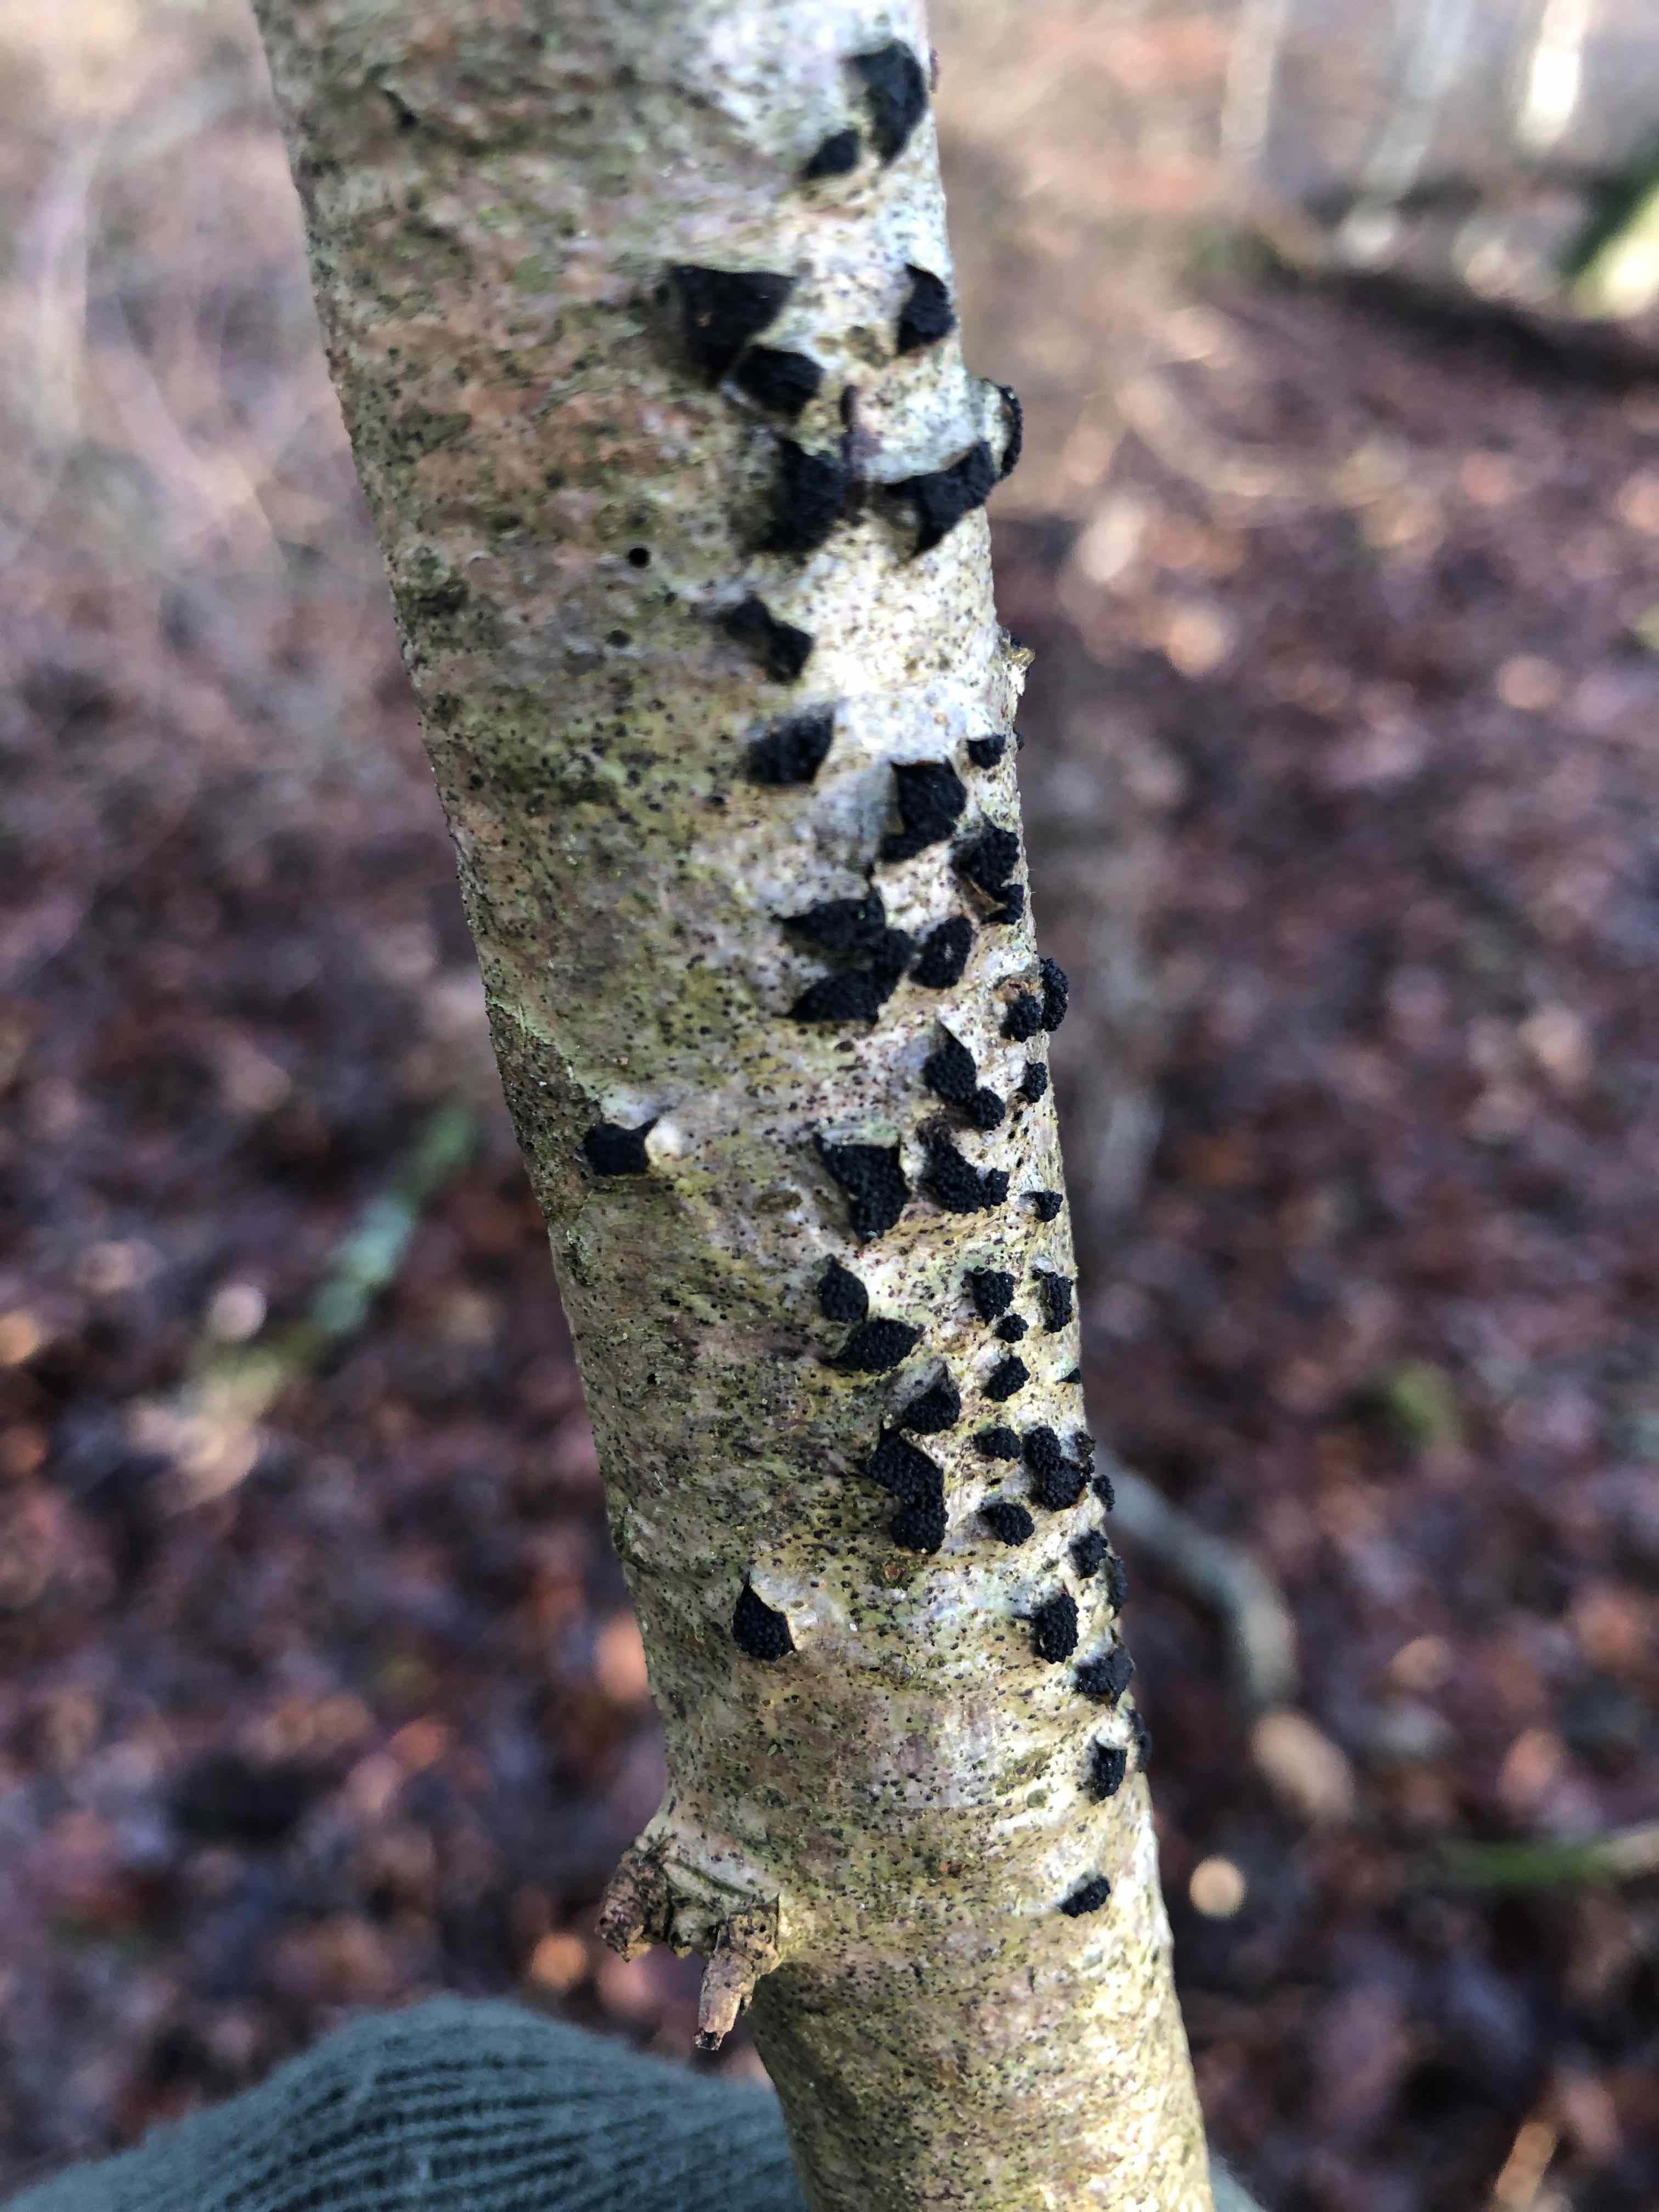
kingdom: Fungi
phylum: Ascomycota
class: Sordariomycetes
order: Xylariales
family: Diatrypaceae
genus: Eutypella
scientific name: Eutypella sorbi
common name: rønne-kulskorpe
